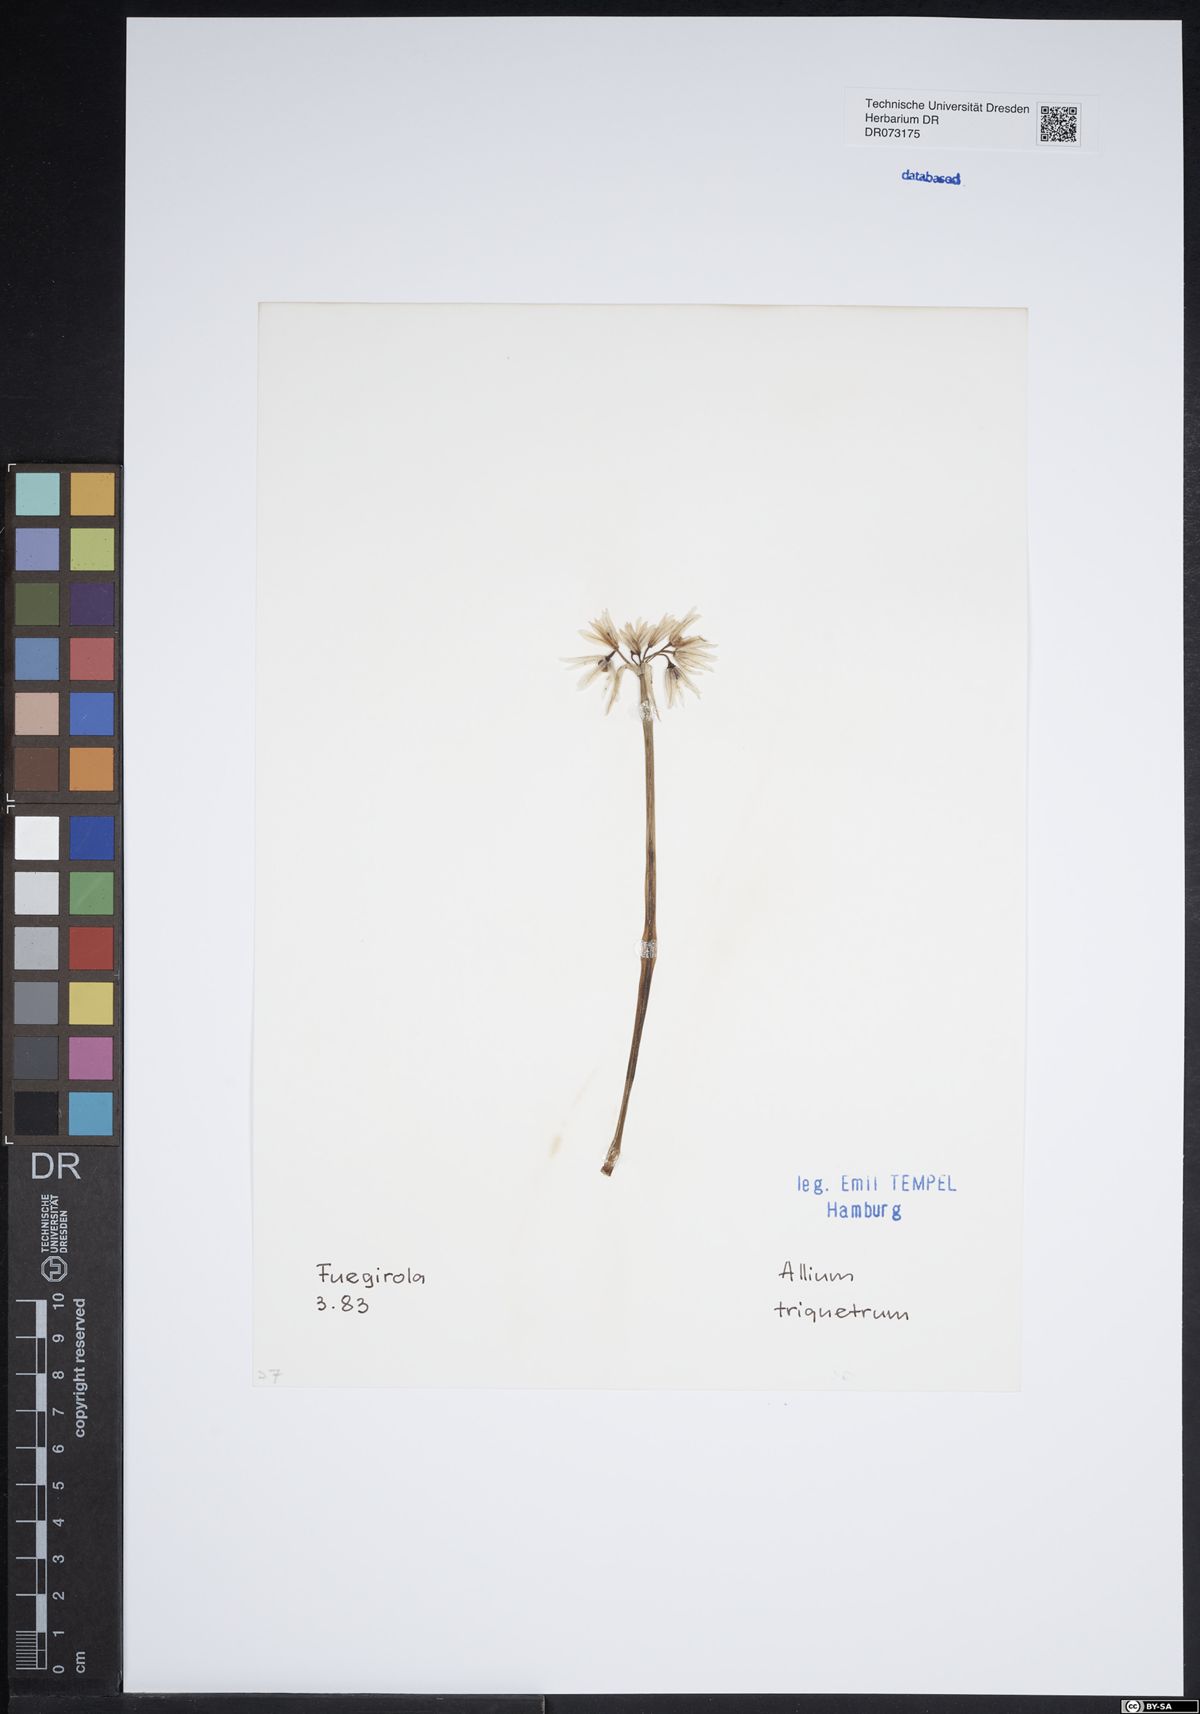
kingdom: Plantae
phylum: Tracheophyta
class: Liliopsida
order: Asparagales
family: Amaryllidaceae
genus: Allium
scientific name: Allium triquetrum
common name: Three-cornered garlic
